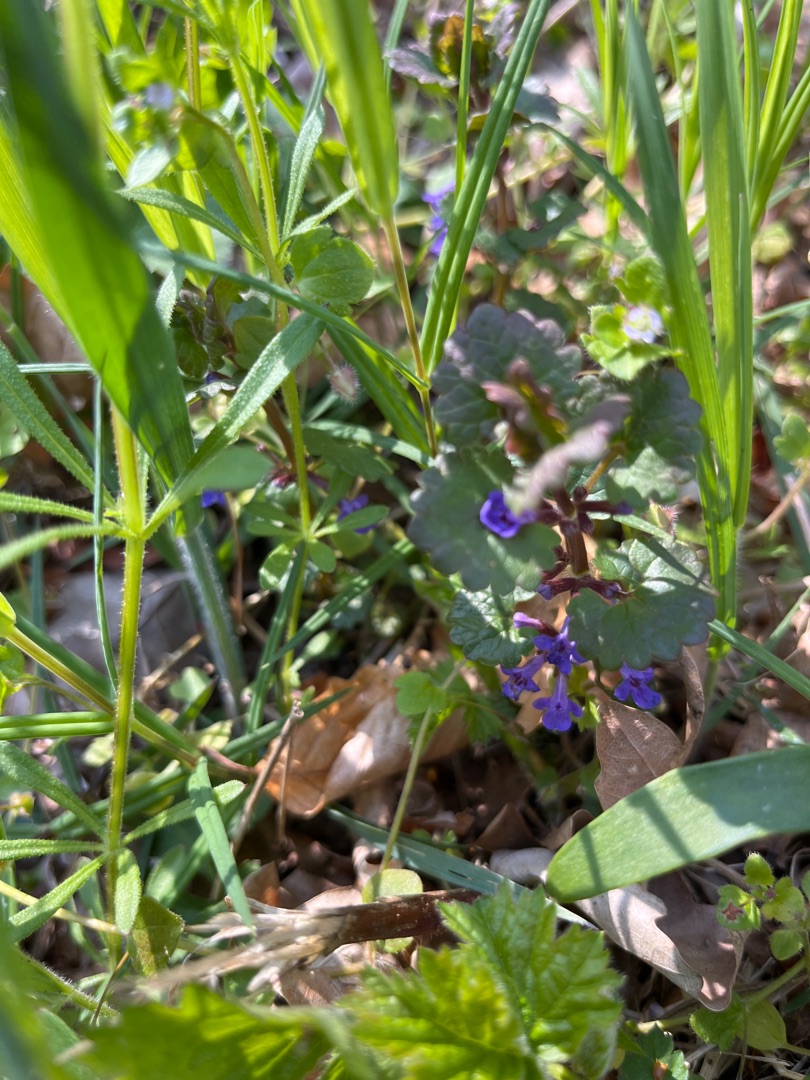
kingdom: Plantae
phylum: Tracheophyta
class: Magnoliopsida
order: Lamiales
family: Lamiaceae
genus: Glechoma
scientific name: Glechoma hederacea
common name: Korsknap
